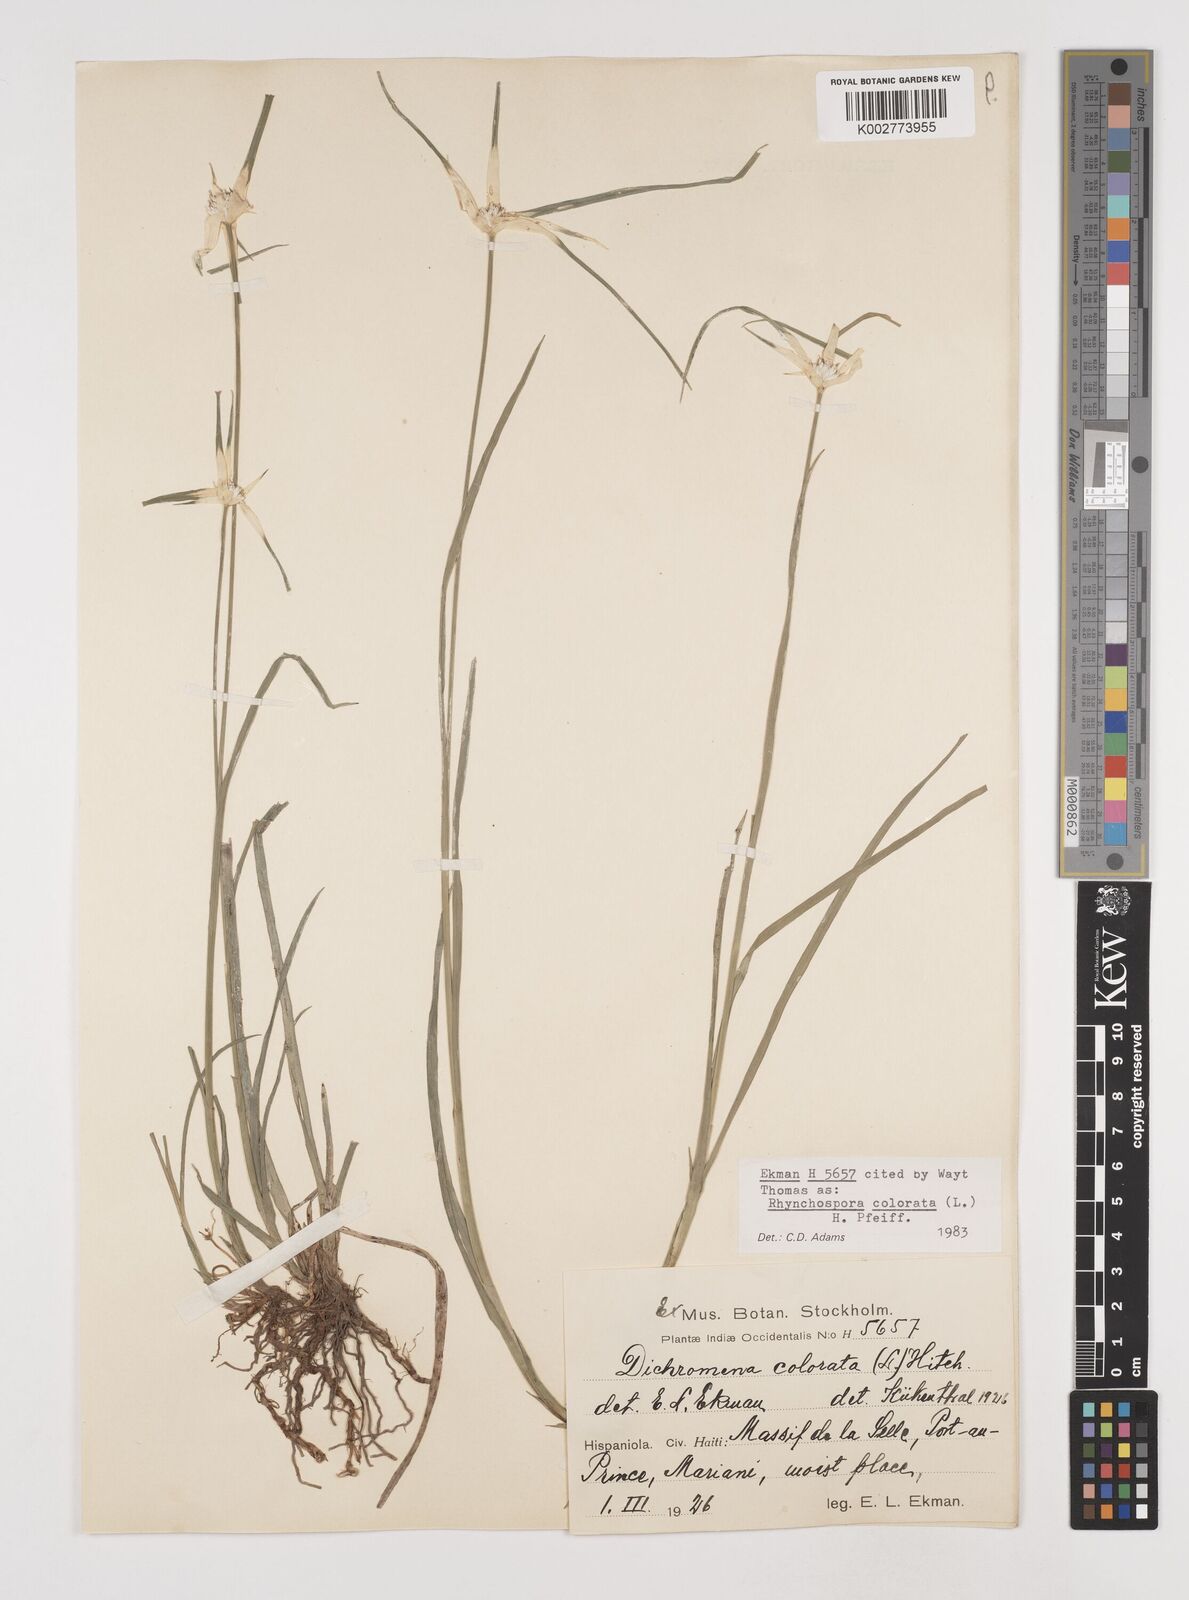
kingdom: Plantae
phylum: Tracheophyta
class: Liliopsida
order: Poales
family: Cyperaceae
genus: Rhynchospora
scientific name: Rhynchospora colorata
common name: Star sedge
